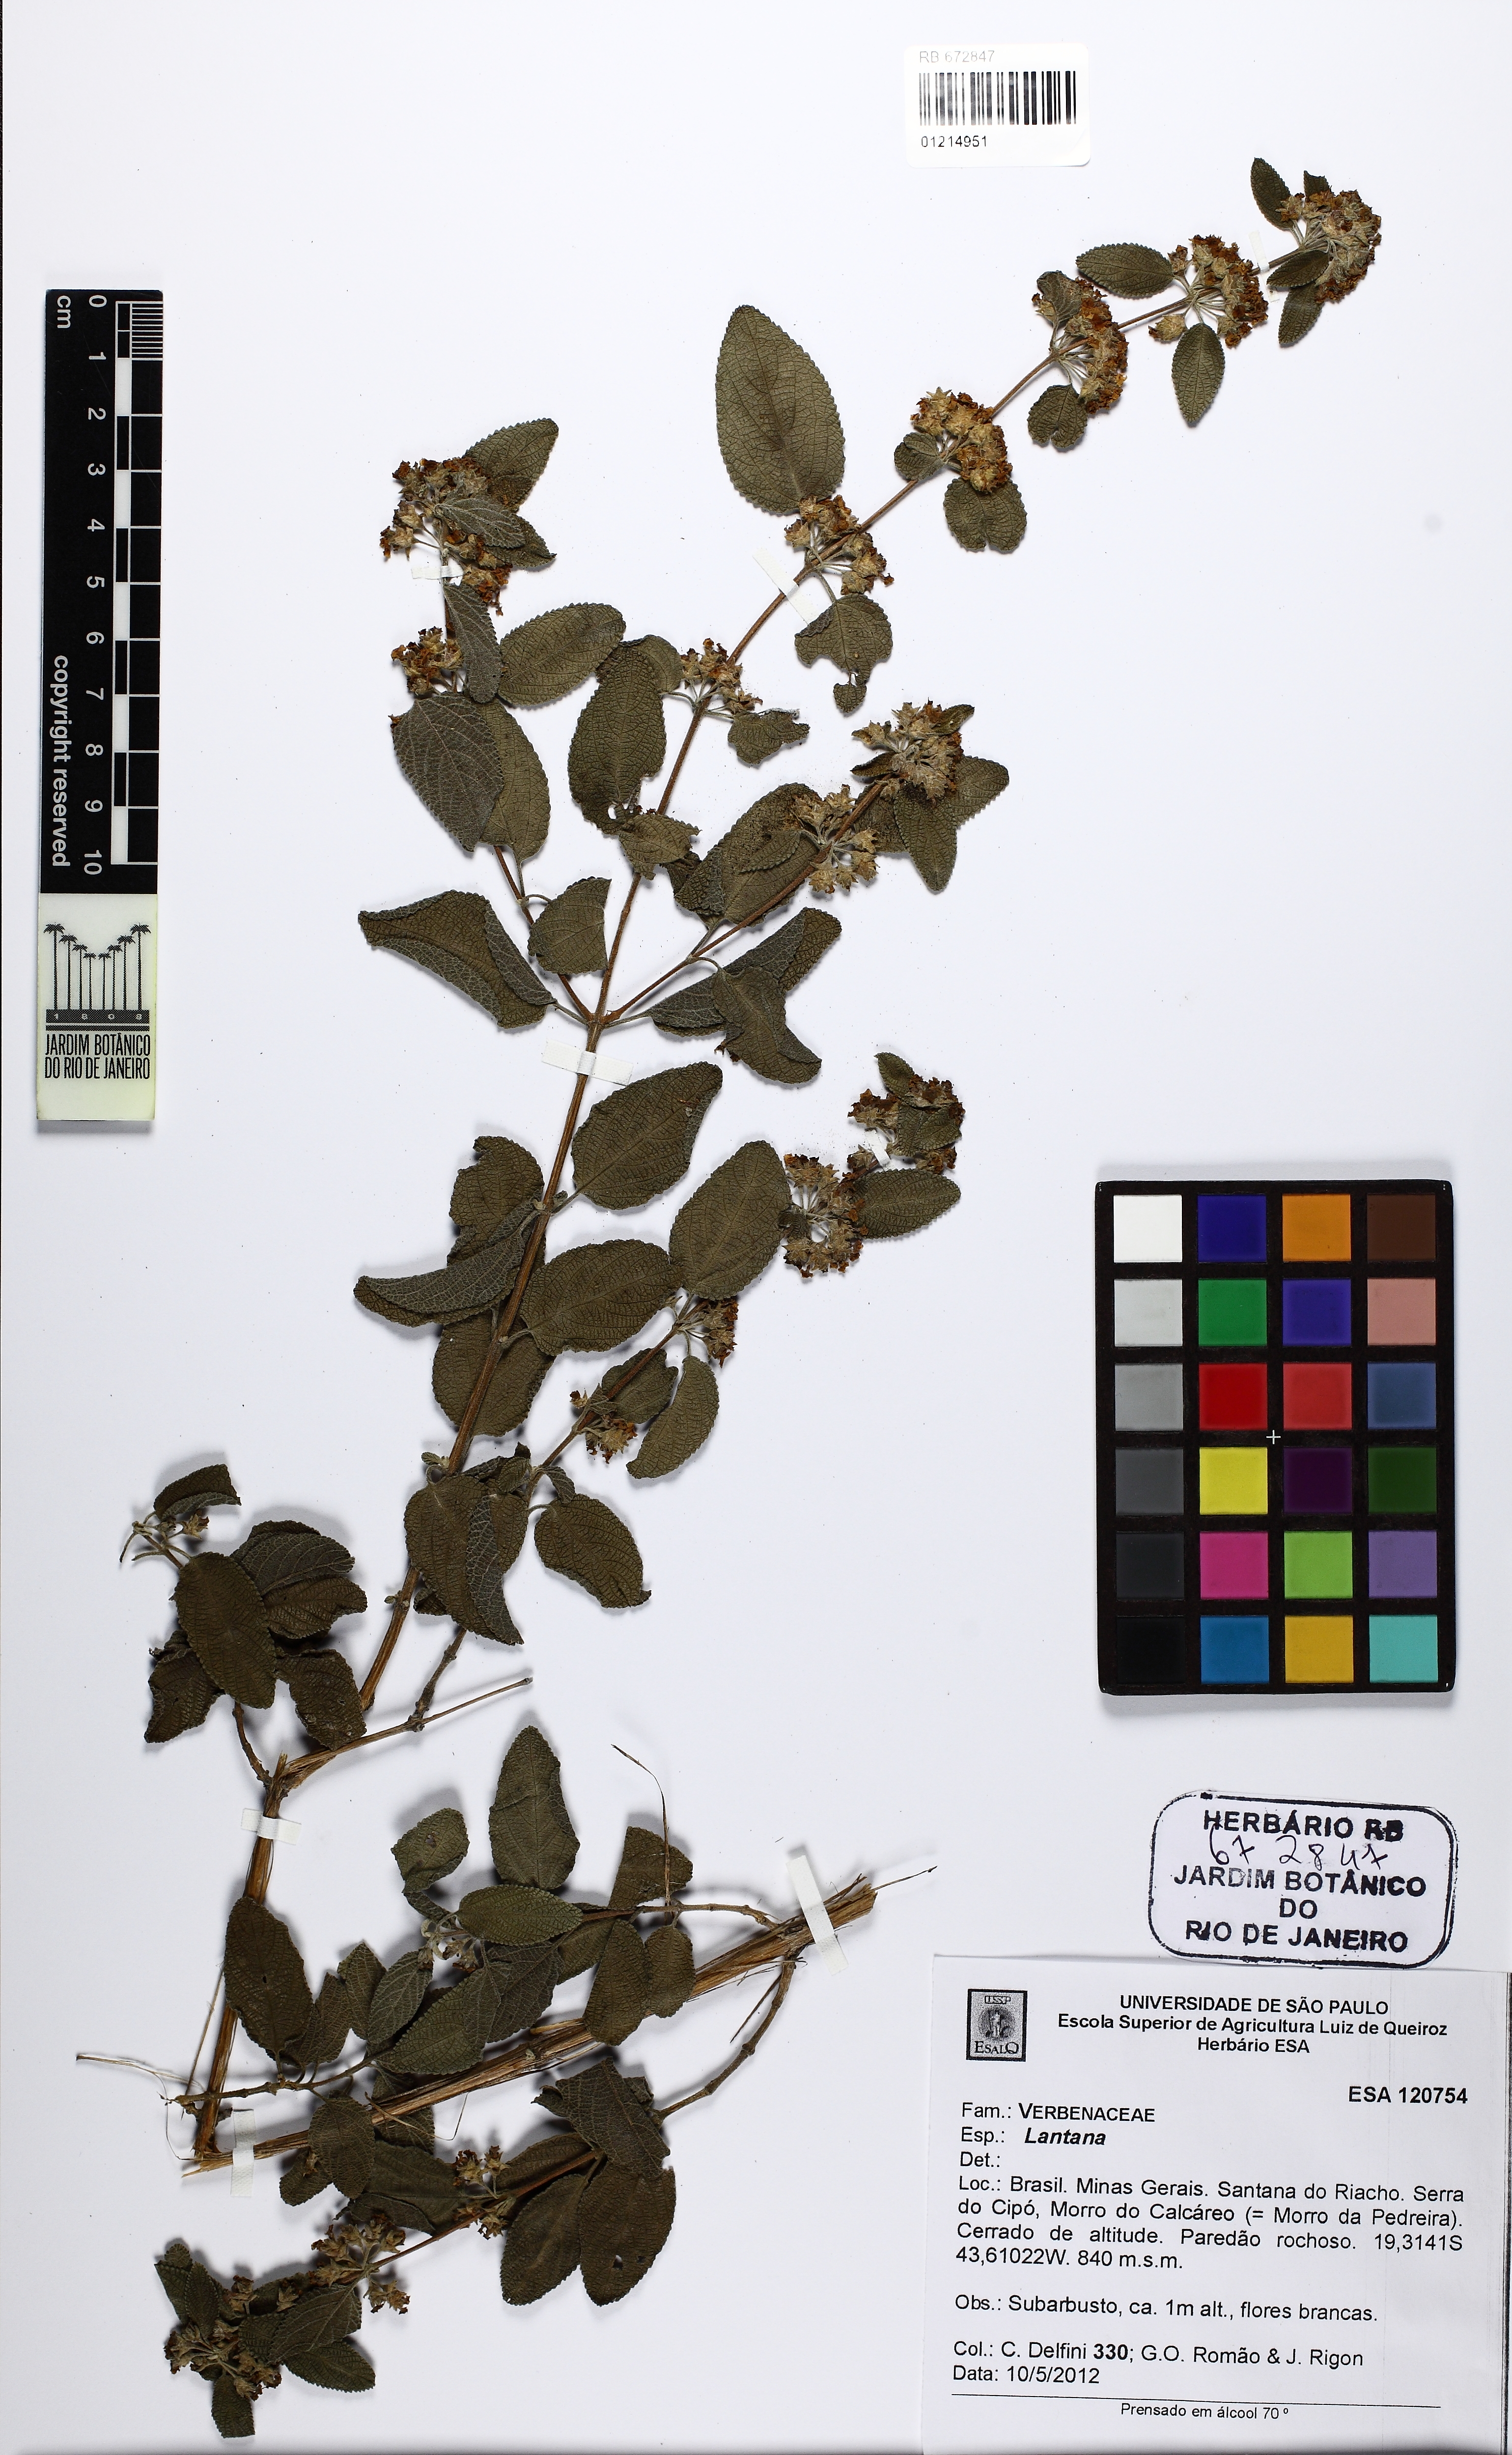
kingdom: Plantae
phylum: Tracheophyta
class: Magnoliopsida
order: Lamiales
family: Verbenaceae
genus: Lantana
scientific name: Lantana
